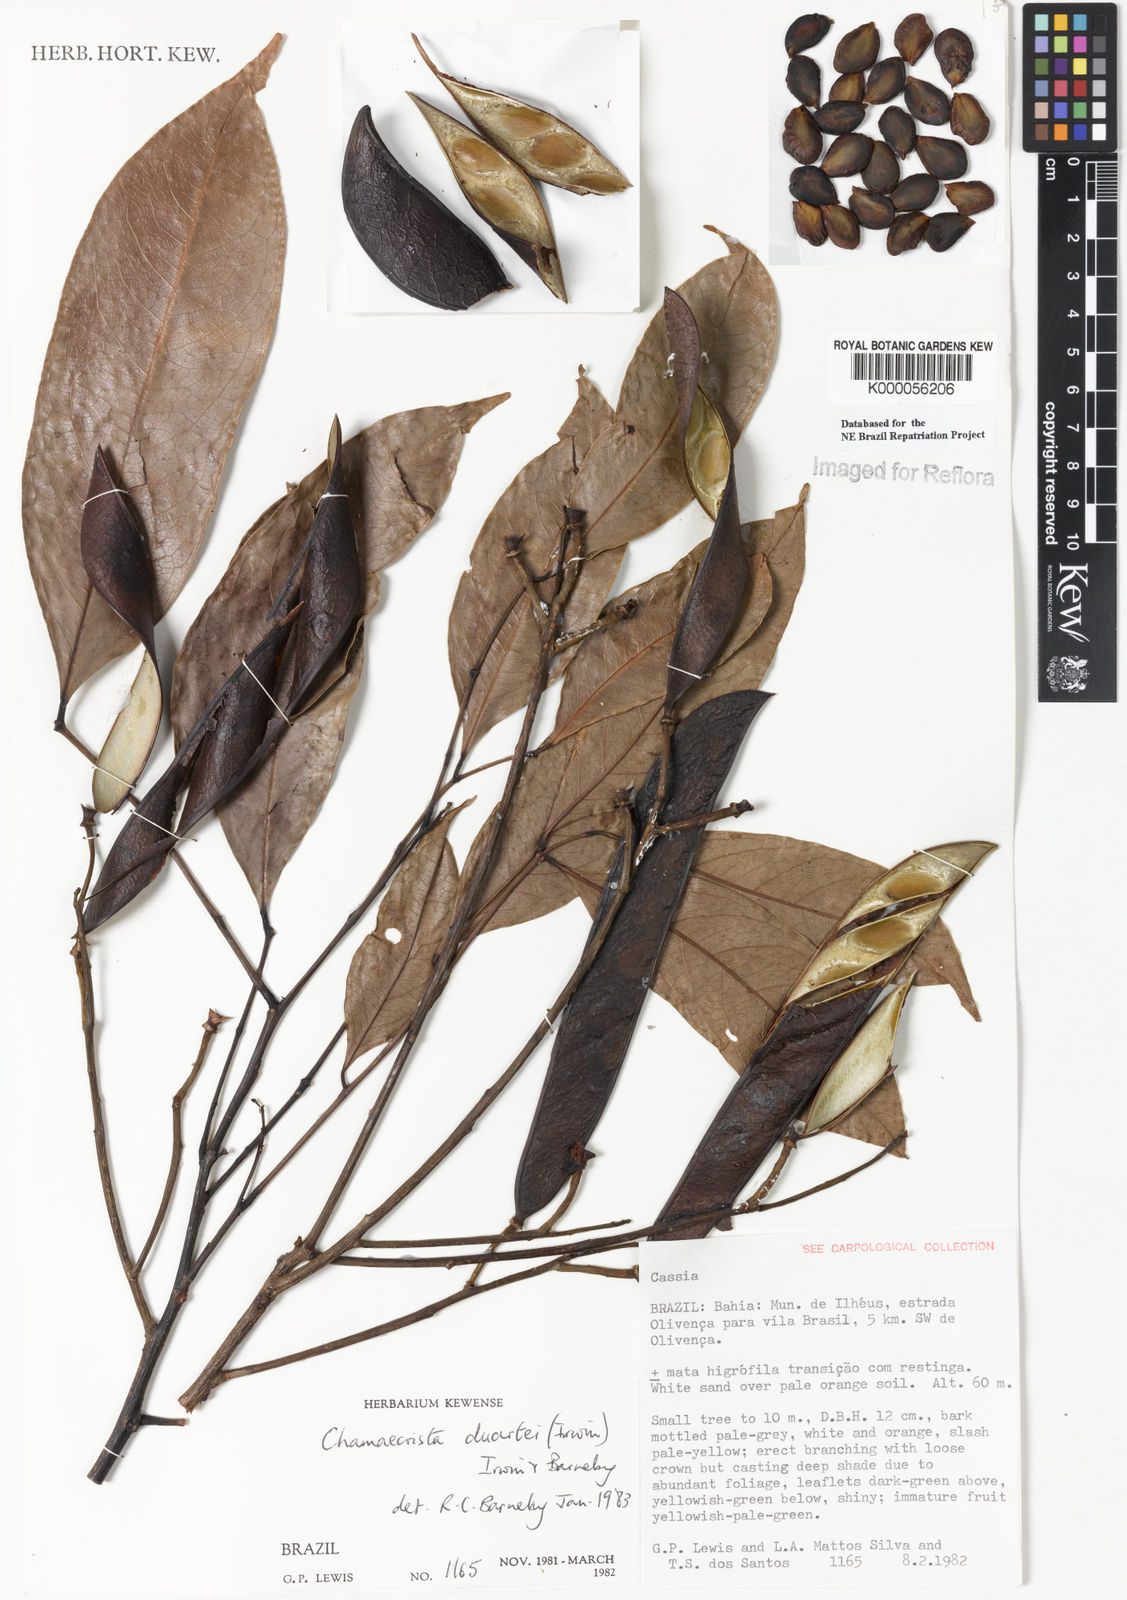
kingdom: Plantae
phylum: Tracheophyta
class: Magnoliopsida
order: Fabales
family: Fabaceae
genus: Chamaecrista
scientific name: Chamaecrista duartei
